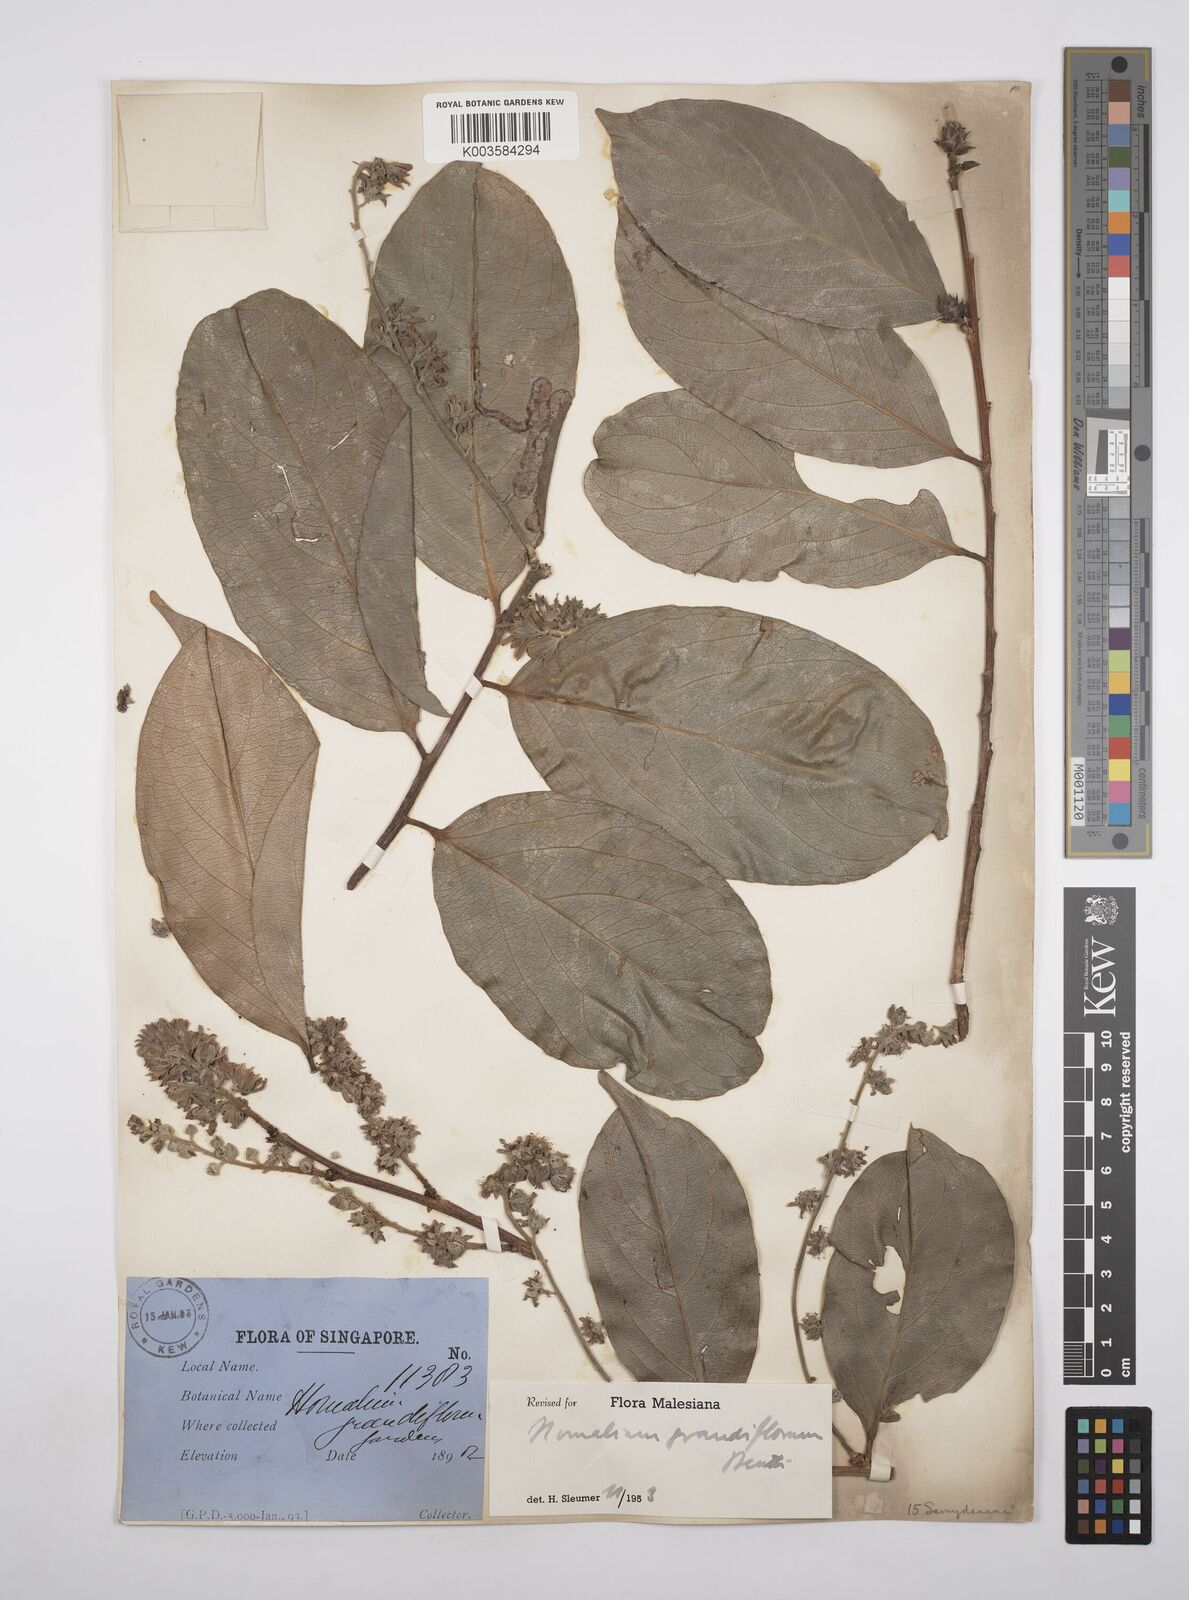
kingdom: Plantae
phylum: Tracheophyta
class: Magnoliopsida
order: Malpighiales
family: Salicaceae
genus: Homalium
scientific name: Homalium grandiflorum
